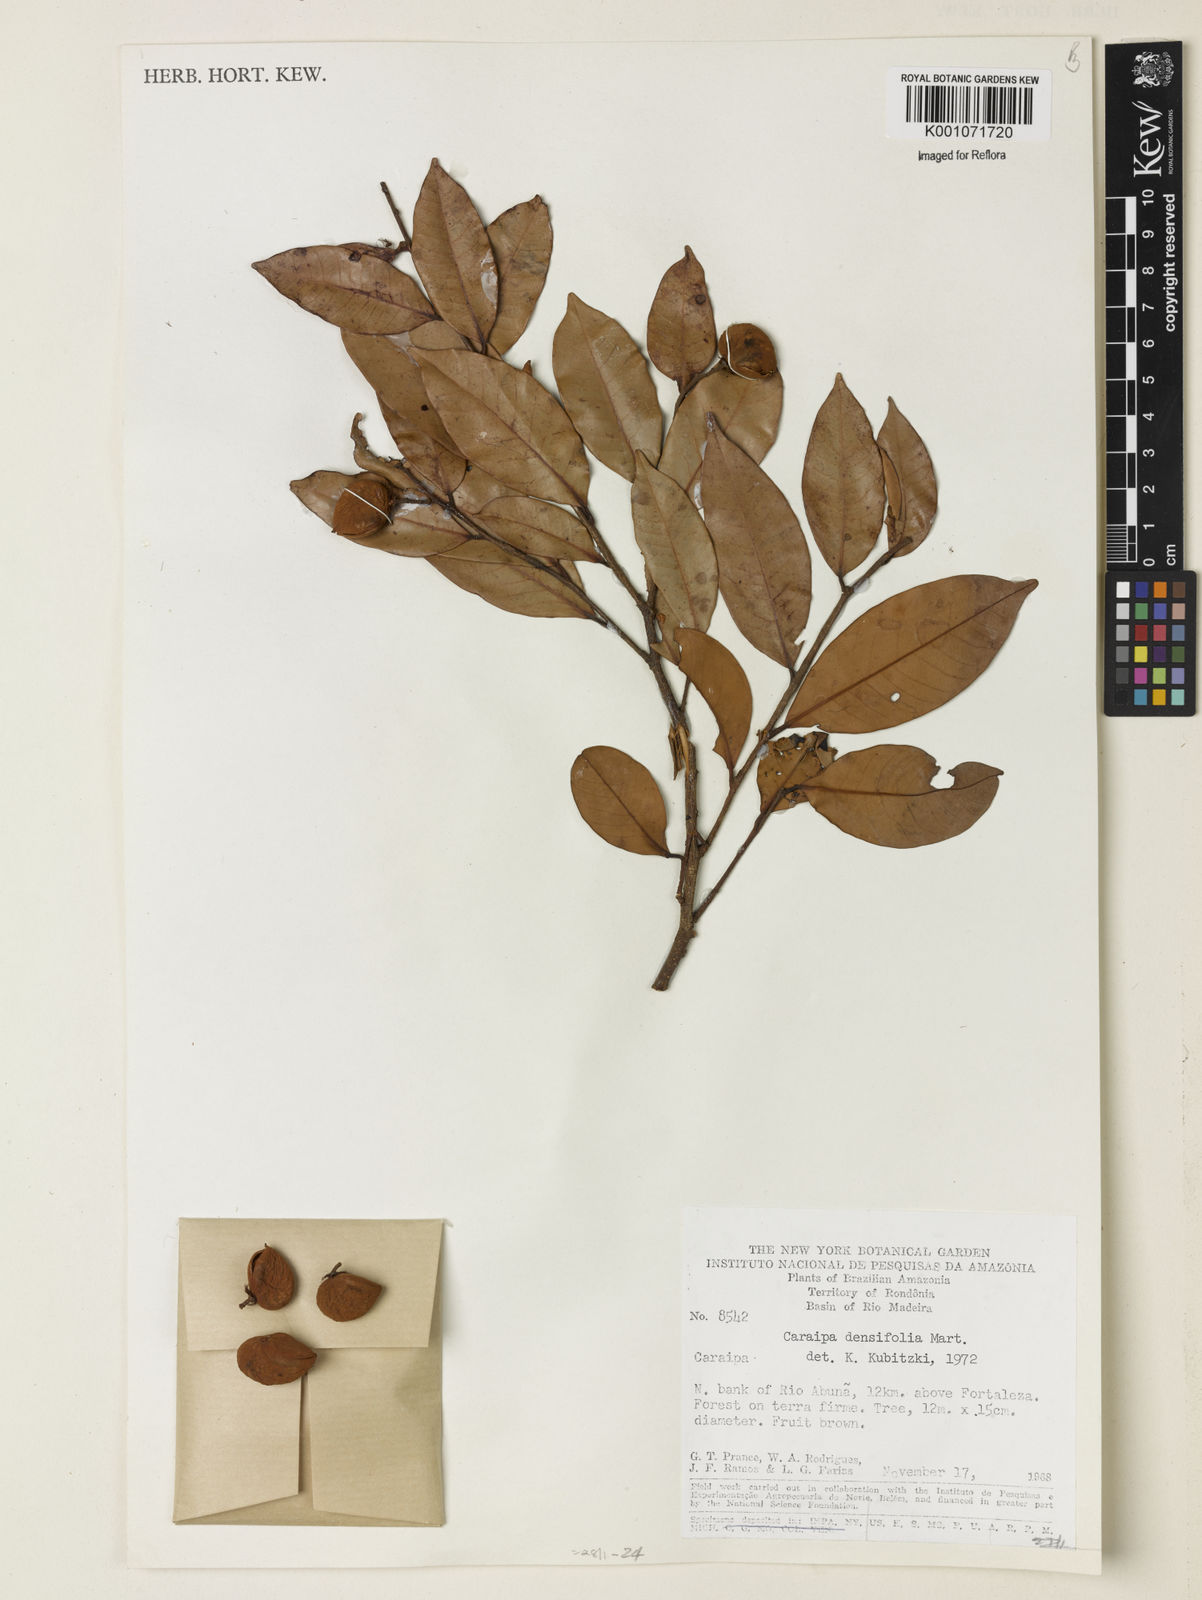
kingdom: Plantae
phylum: Tracheophyta
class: Magnoliopsida
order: Malpighiales
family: Calophyllaceae
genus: Caraipa
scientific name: Caraipa densifolia
